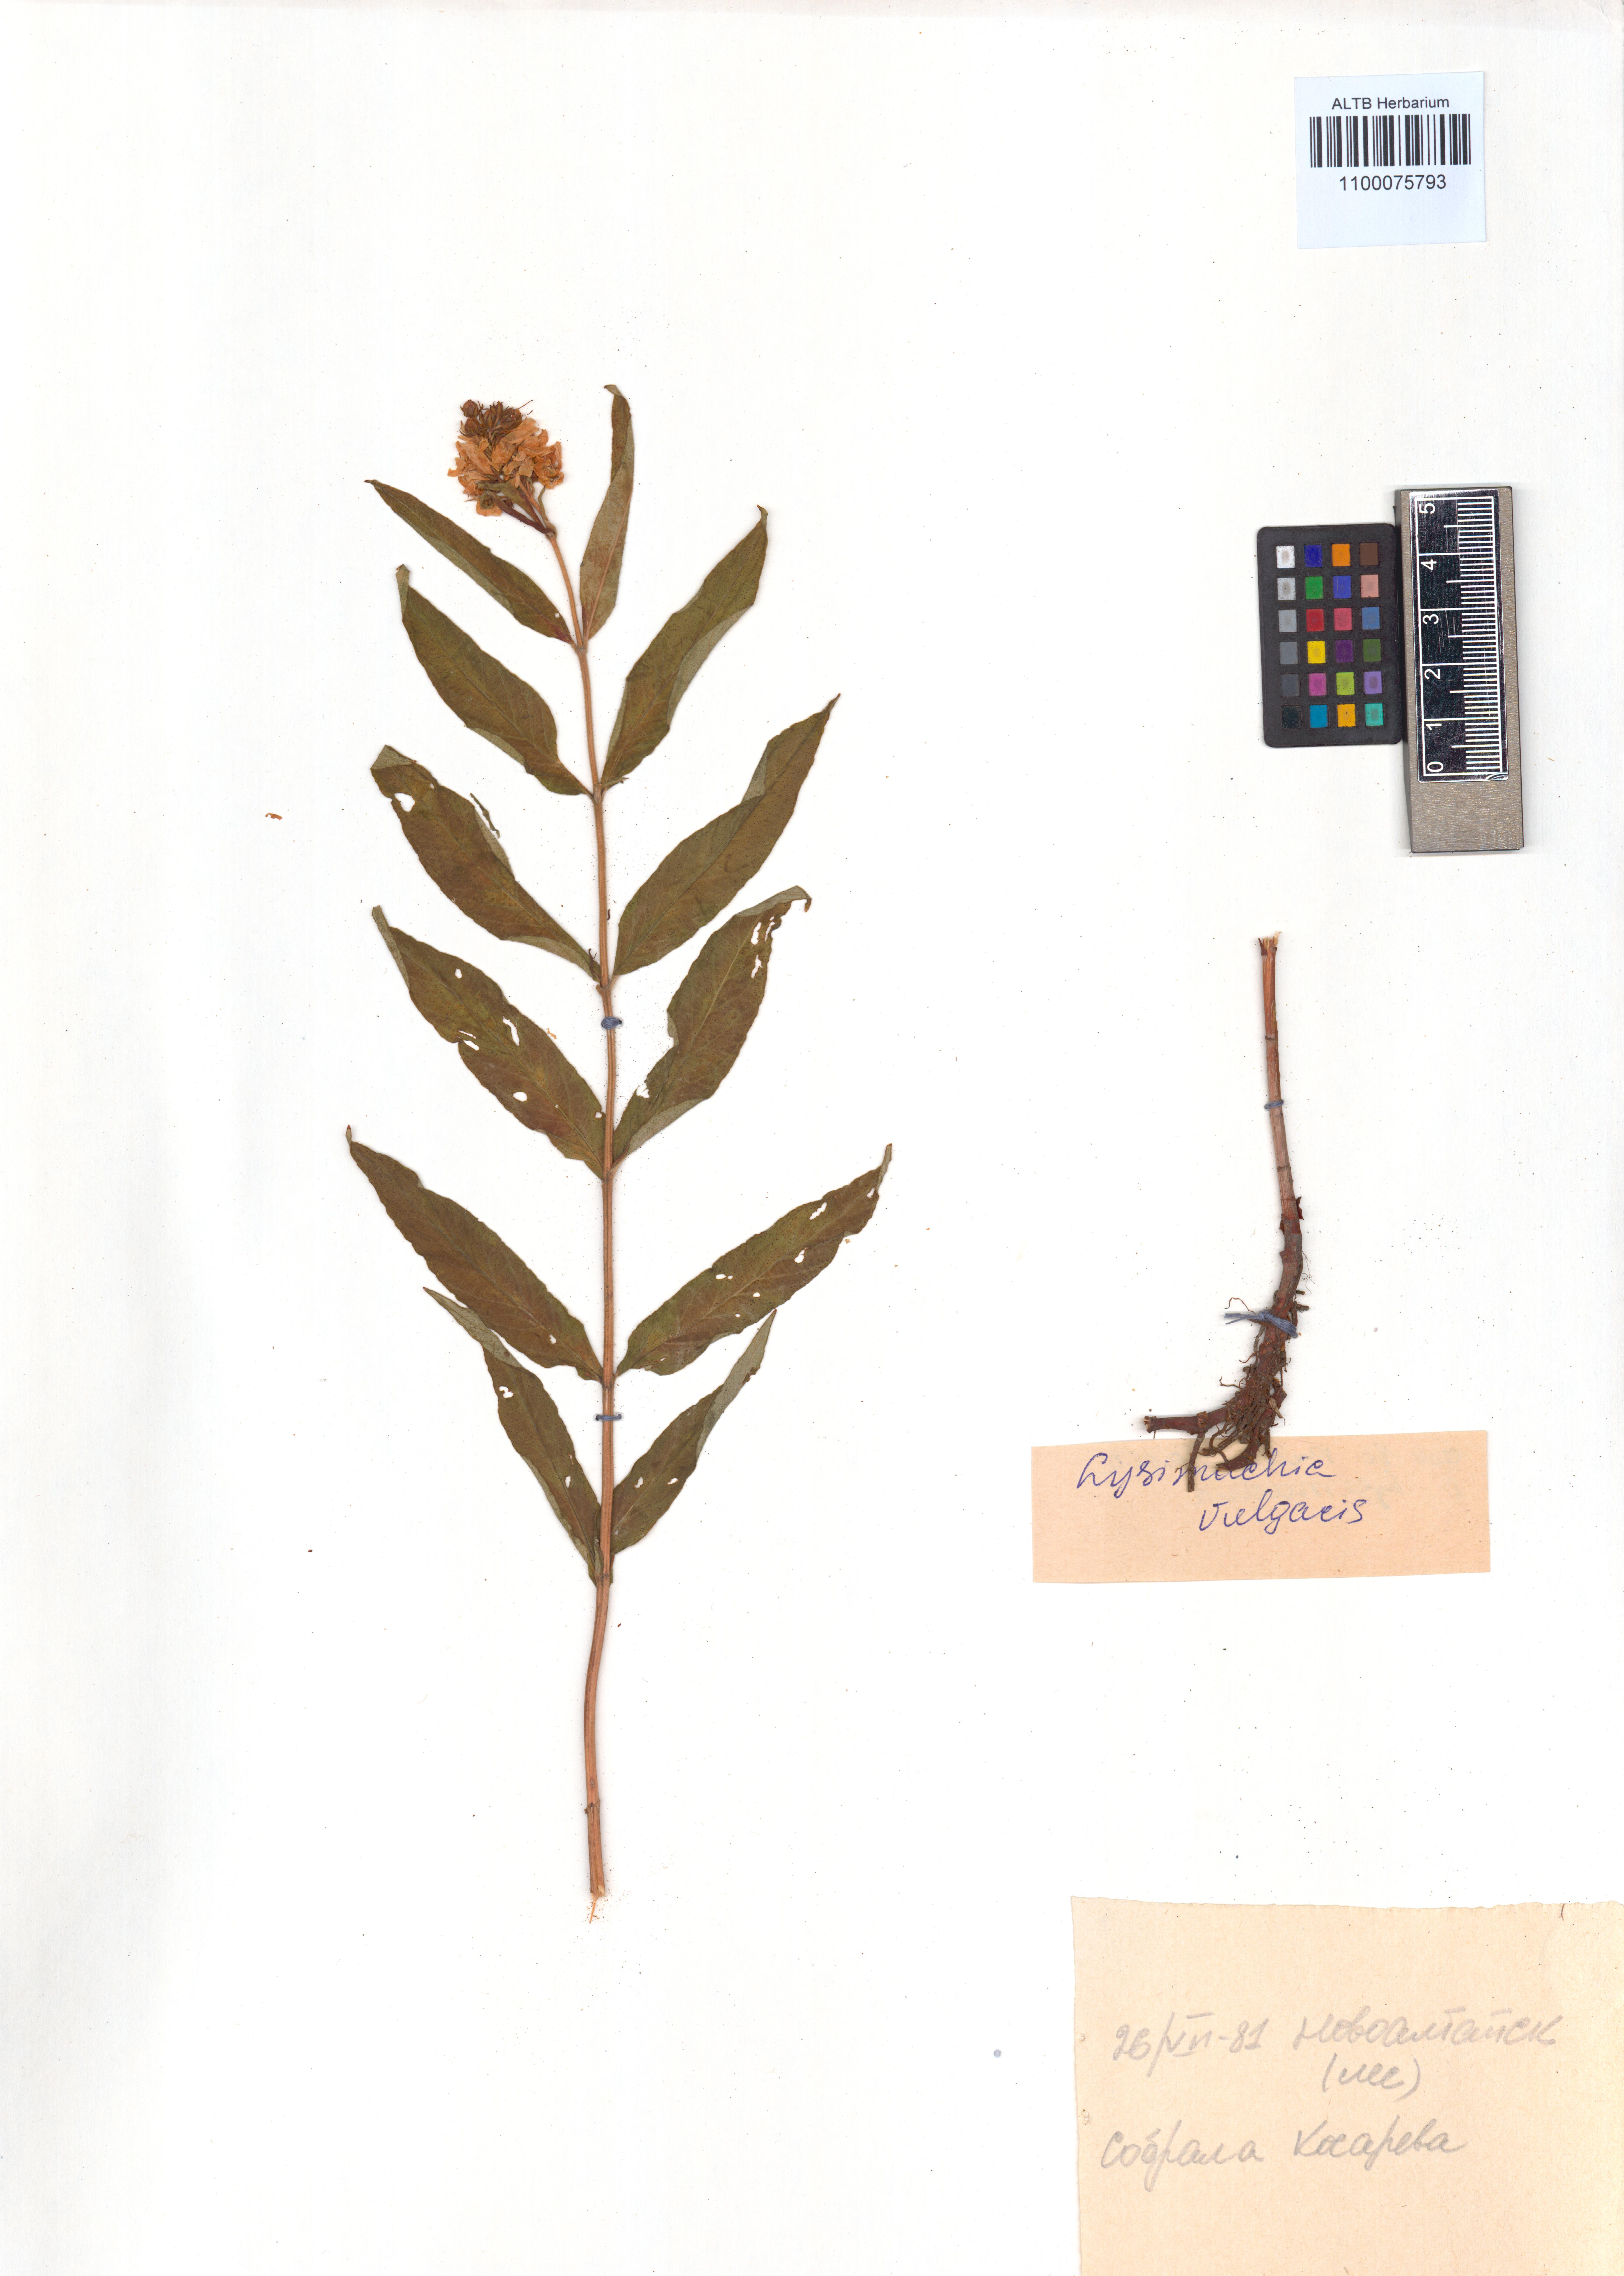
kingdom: Plantae
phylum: Tracheophyta
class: Magnoliopsida
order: Ericales
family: Primulaceae
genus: Lysimachia
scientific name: Lysimachia vulgaris
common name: Yellow loosestrife
